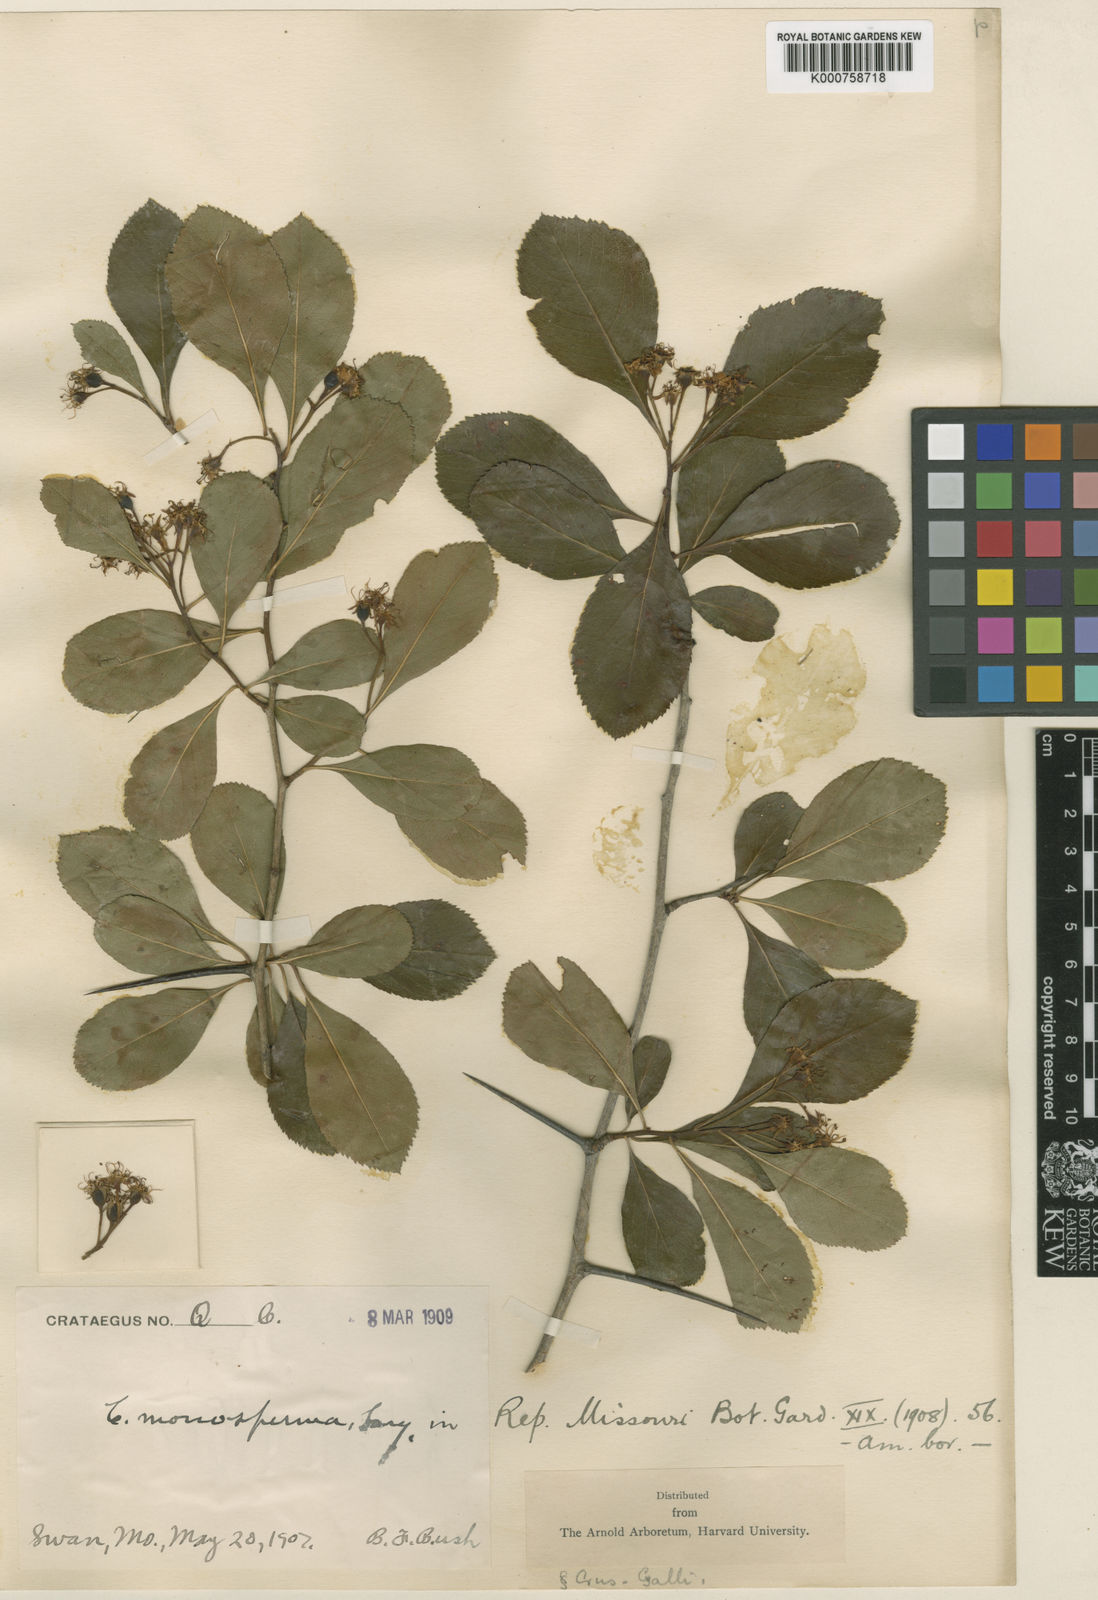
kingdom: Plantae
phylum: Tracheophyta
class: Magnoliopsida
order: Rosales
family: Rosaceae
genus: Crataegus
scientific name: Crataegus monosperma
